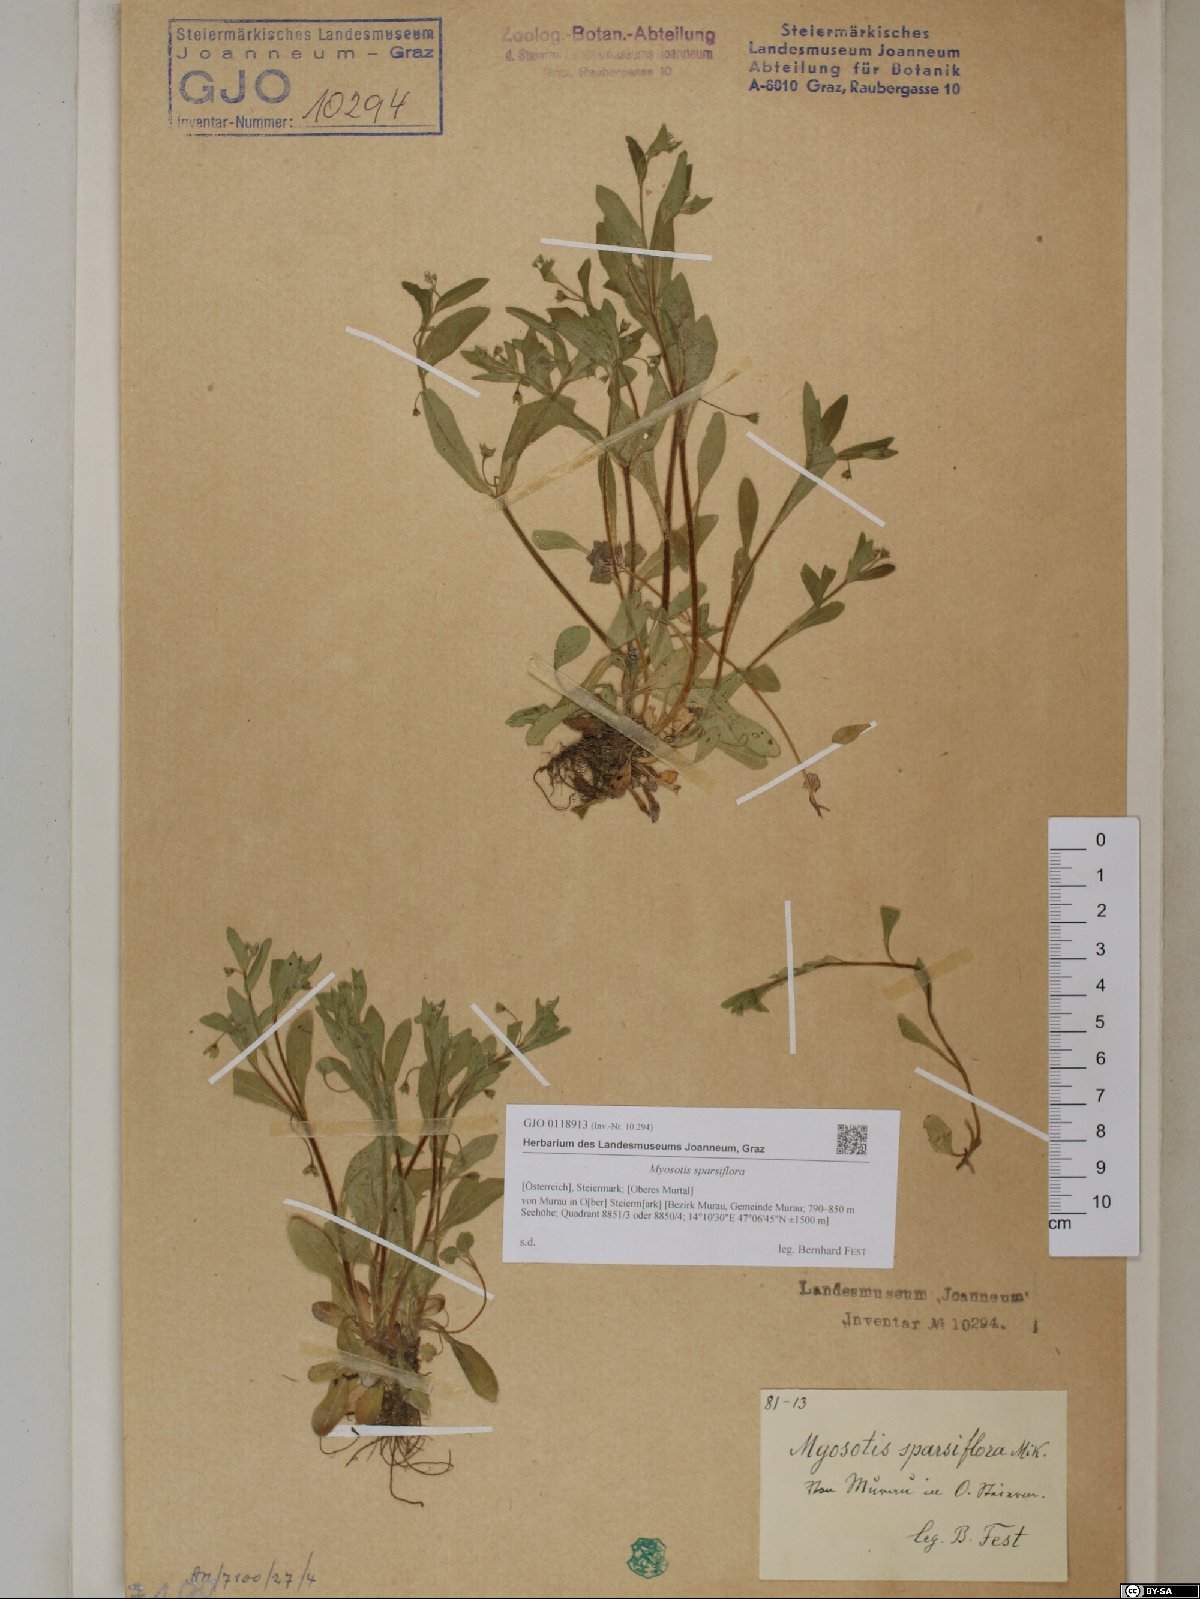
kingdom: Plantae
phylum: Tracheophyta
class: Magnoliopsida
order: Boraginales
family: Boraginaceae
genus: Myosotis
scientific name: Myosotis sparsiflora
